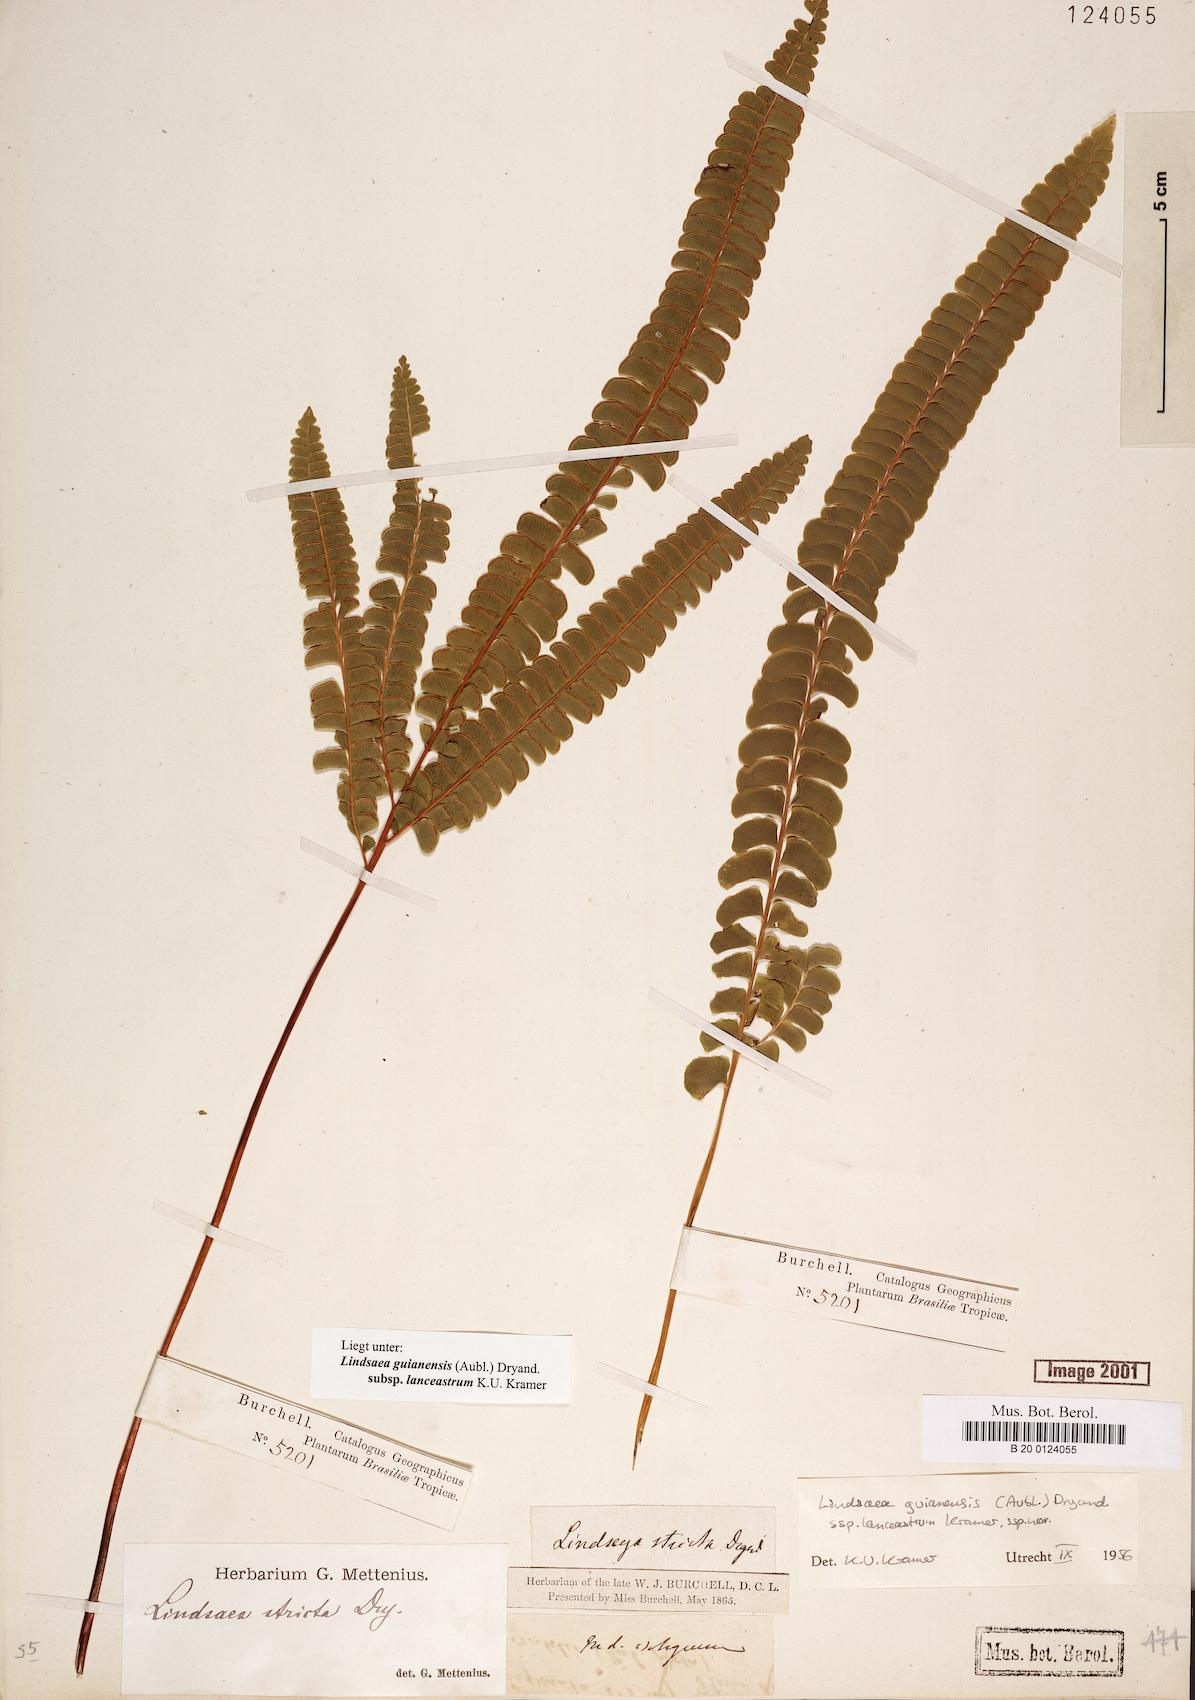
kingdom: Plantae
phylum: Tracheophyta
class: Polypodiopsida
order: Polypodiales
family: Lindsaeaceae
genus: Lindsaea
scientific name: Lindsaea guianensis
